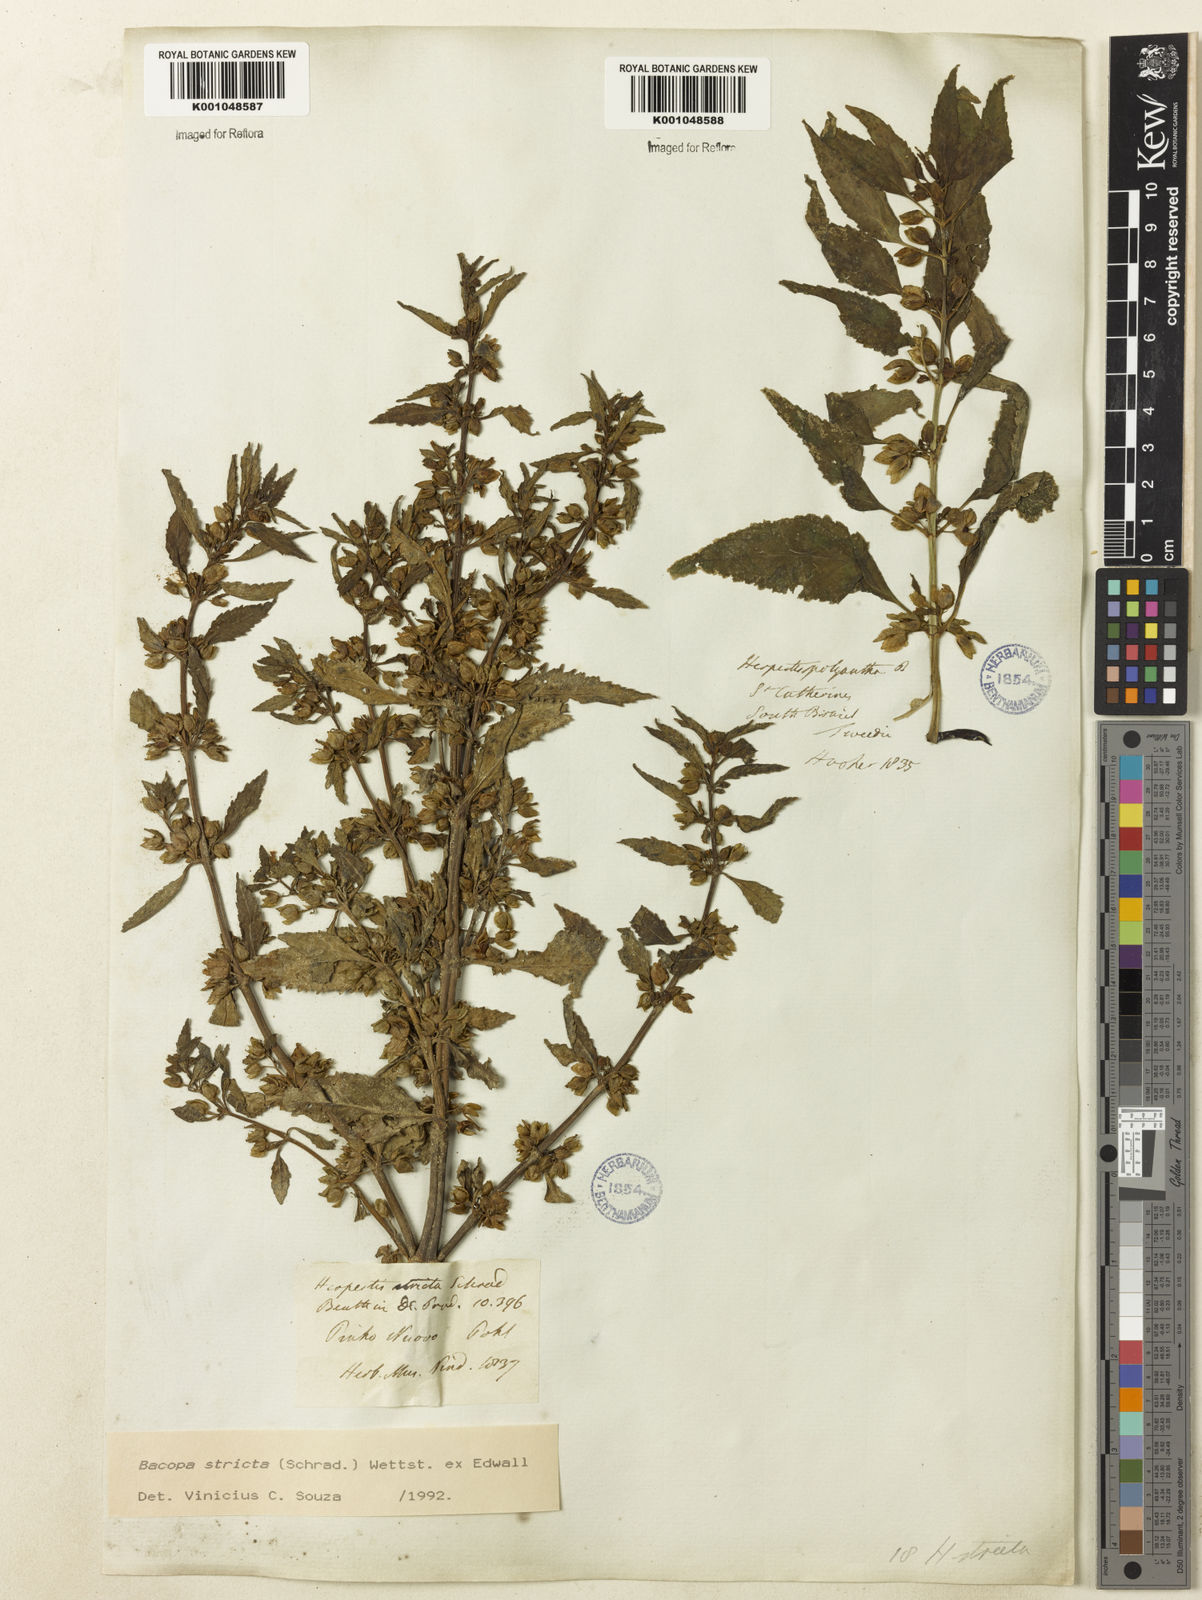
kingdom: Plantae
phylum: Tracheophyta
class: Magnoliopsida
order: Lamiales
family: Plantaginaceae
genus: Bacopa
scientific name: Bacopa stricta
